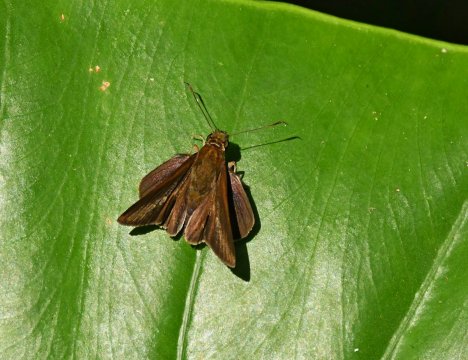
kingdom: Animalia
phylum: Arthropoda
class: Insecta
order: Lepidoptera
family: Hesperiidae
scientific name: Hesperiidae
